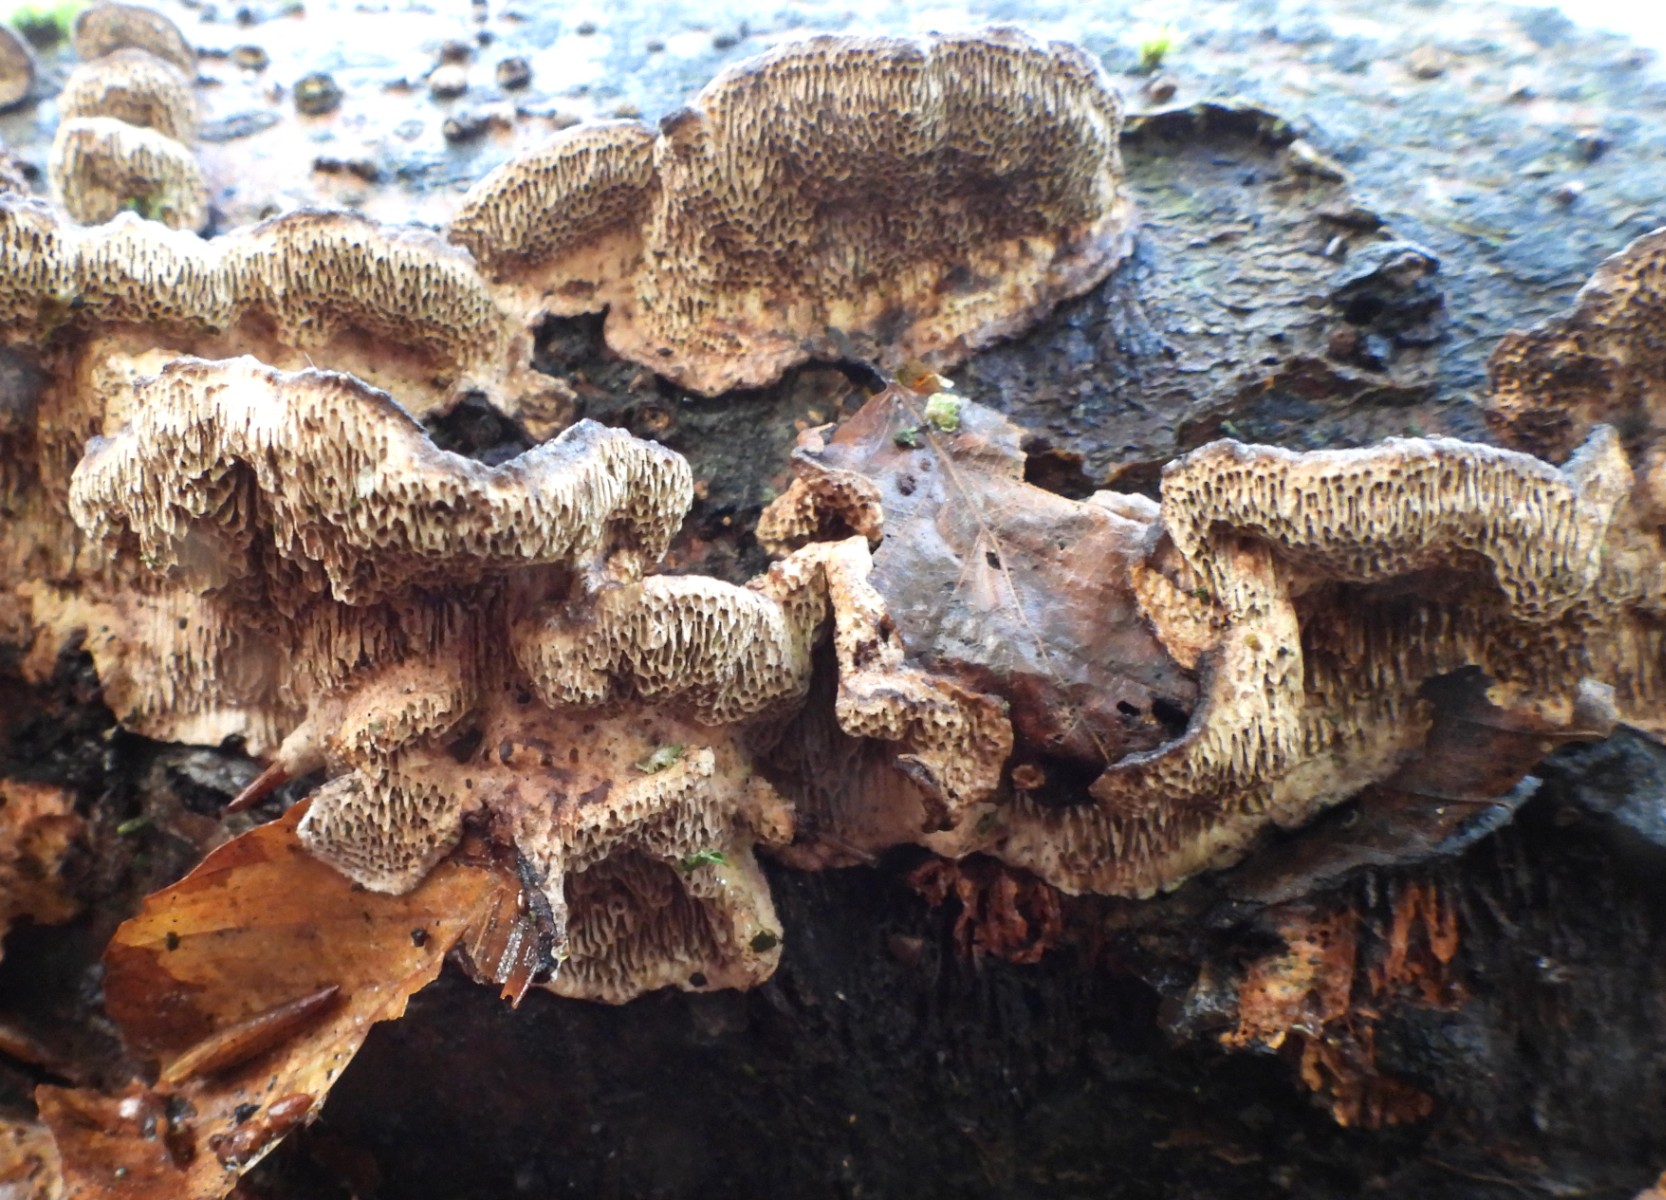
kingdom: Fungi
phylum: Basidiomycota
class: Agaricomycetes
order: Polyporales
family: Polyporaceae
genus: Podofomes
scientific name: Podofomes mollis
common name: blød begporesvamp
